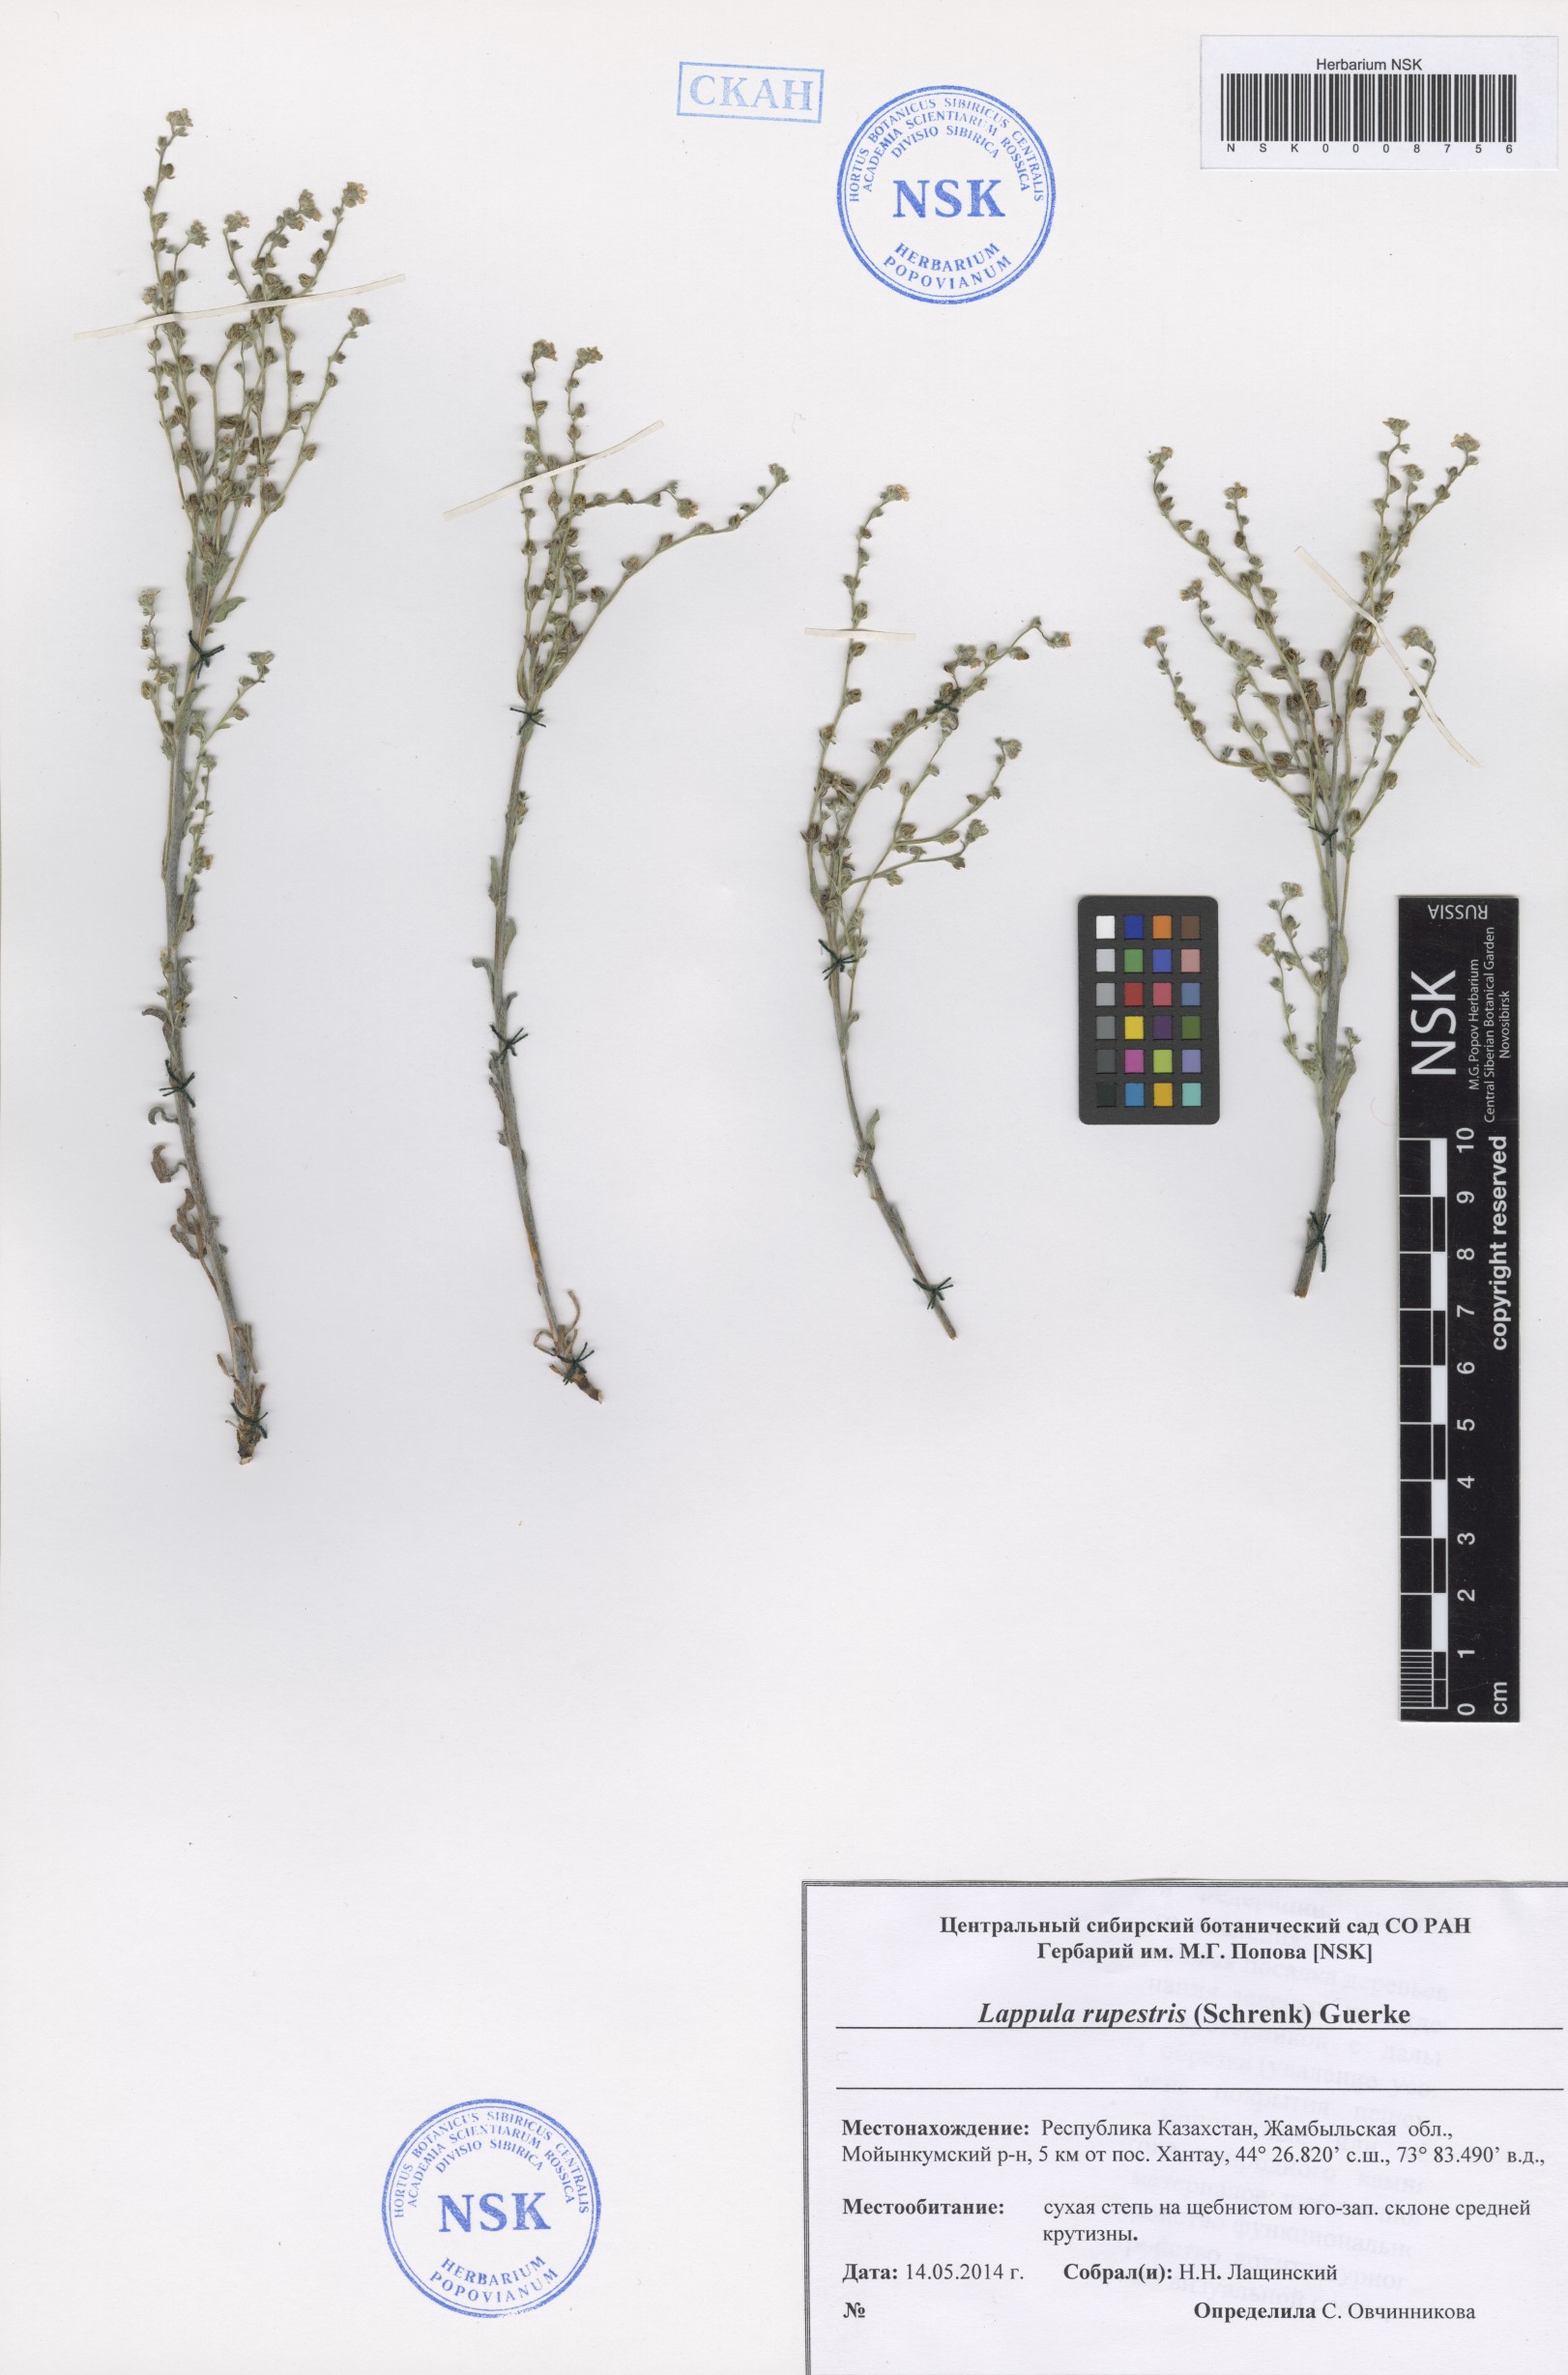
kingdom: Plantae
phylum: Tracheophyta
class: Magnoliopsida
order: Boraginales
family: Boraginaceae
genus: Lappula
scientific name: Lappula rupestris
